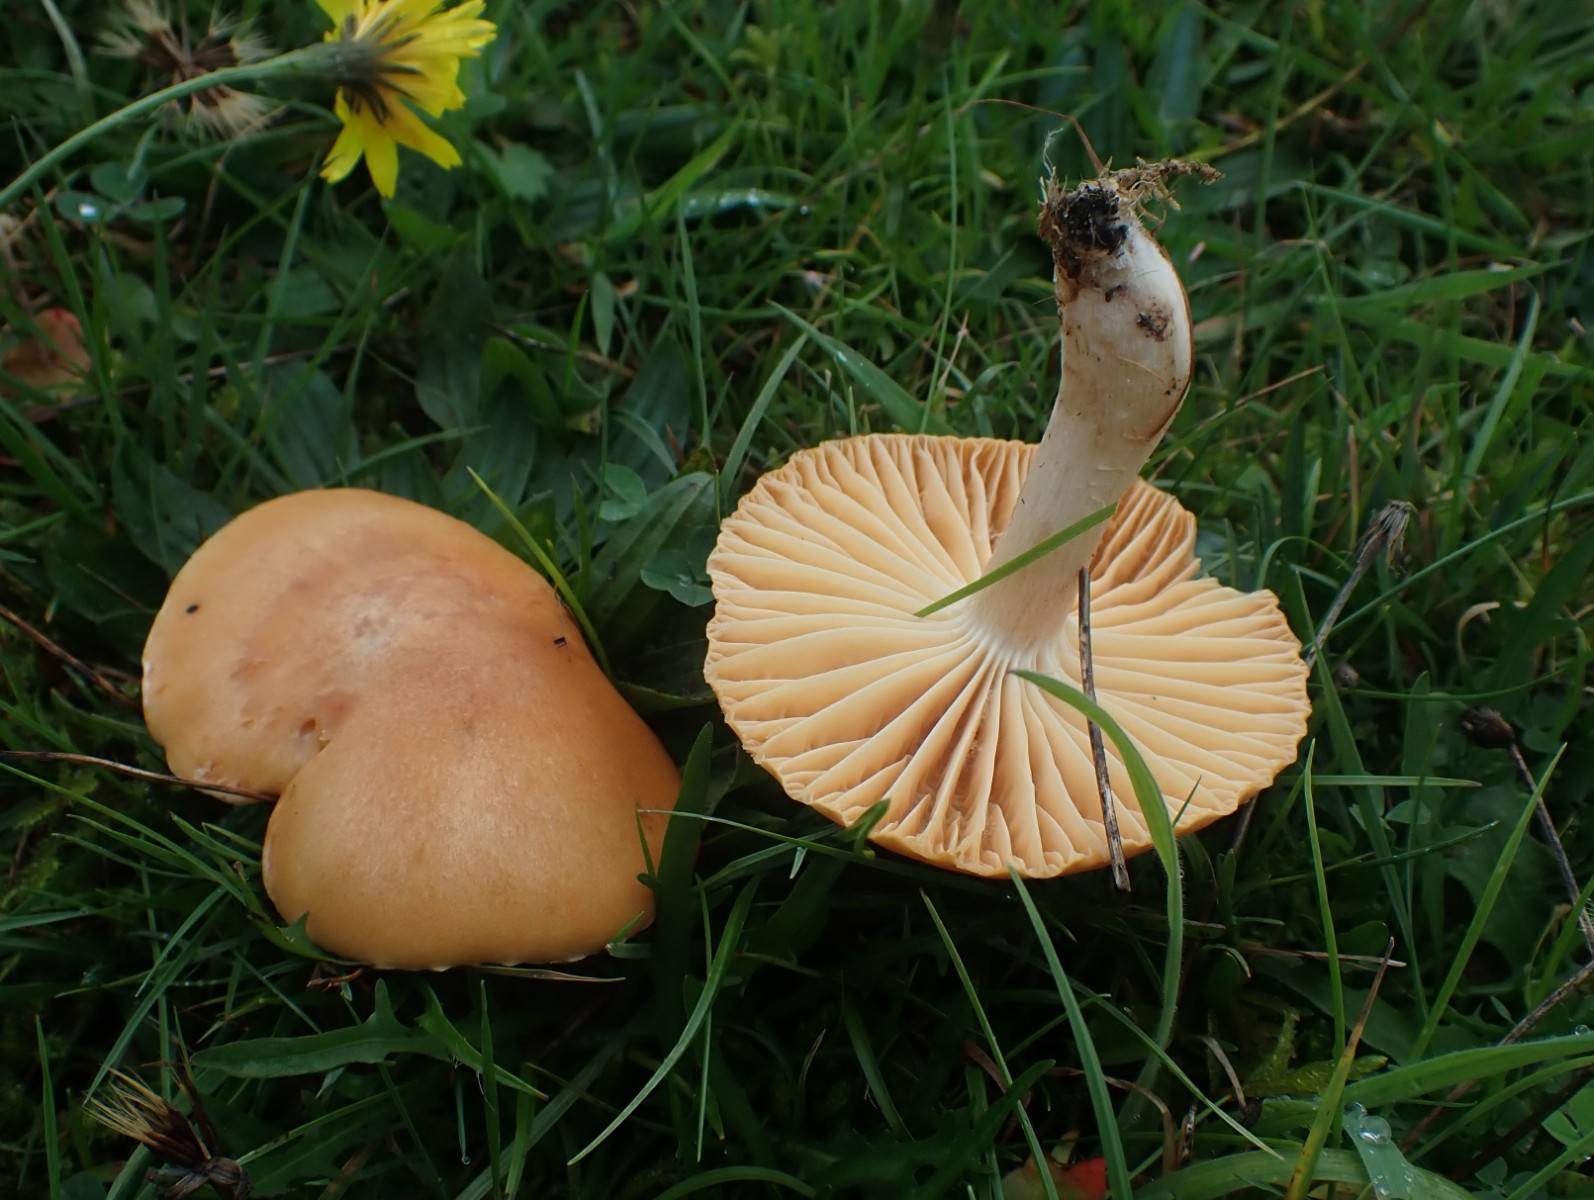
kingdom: Fungi
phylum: Basidiomycota
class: Agaricomycetes
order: Agaricales
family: Hygrophoraceae
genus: Cuphophyllus
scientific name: Cuphophyllus pratensis
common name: eng-vokshat
